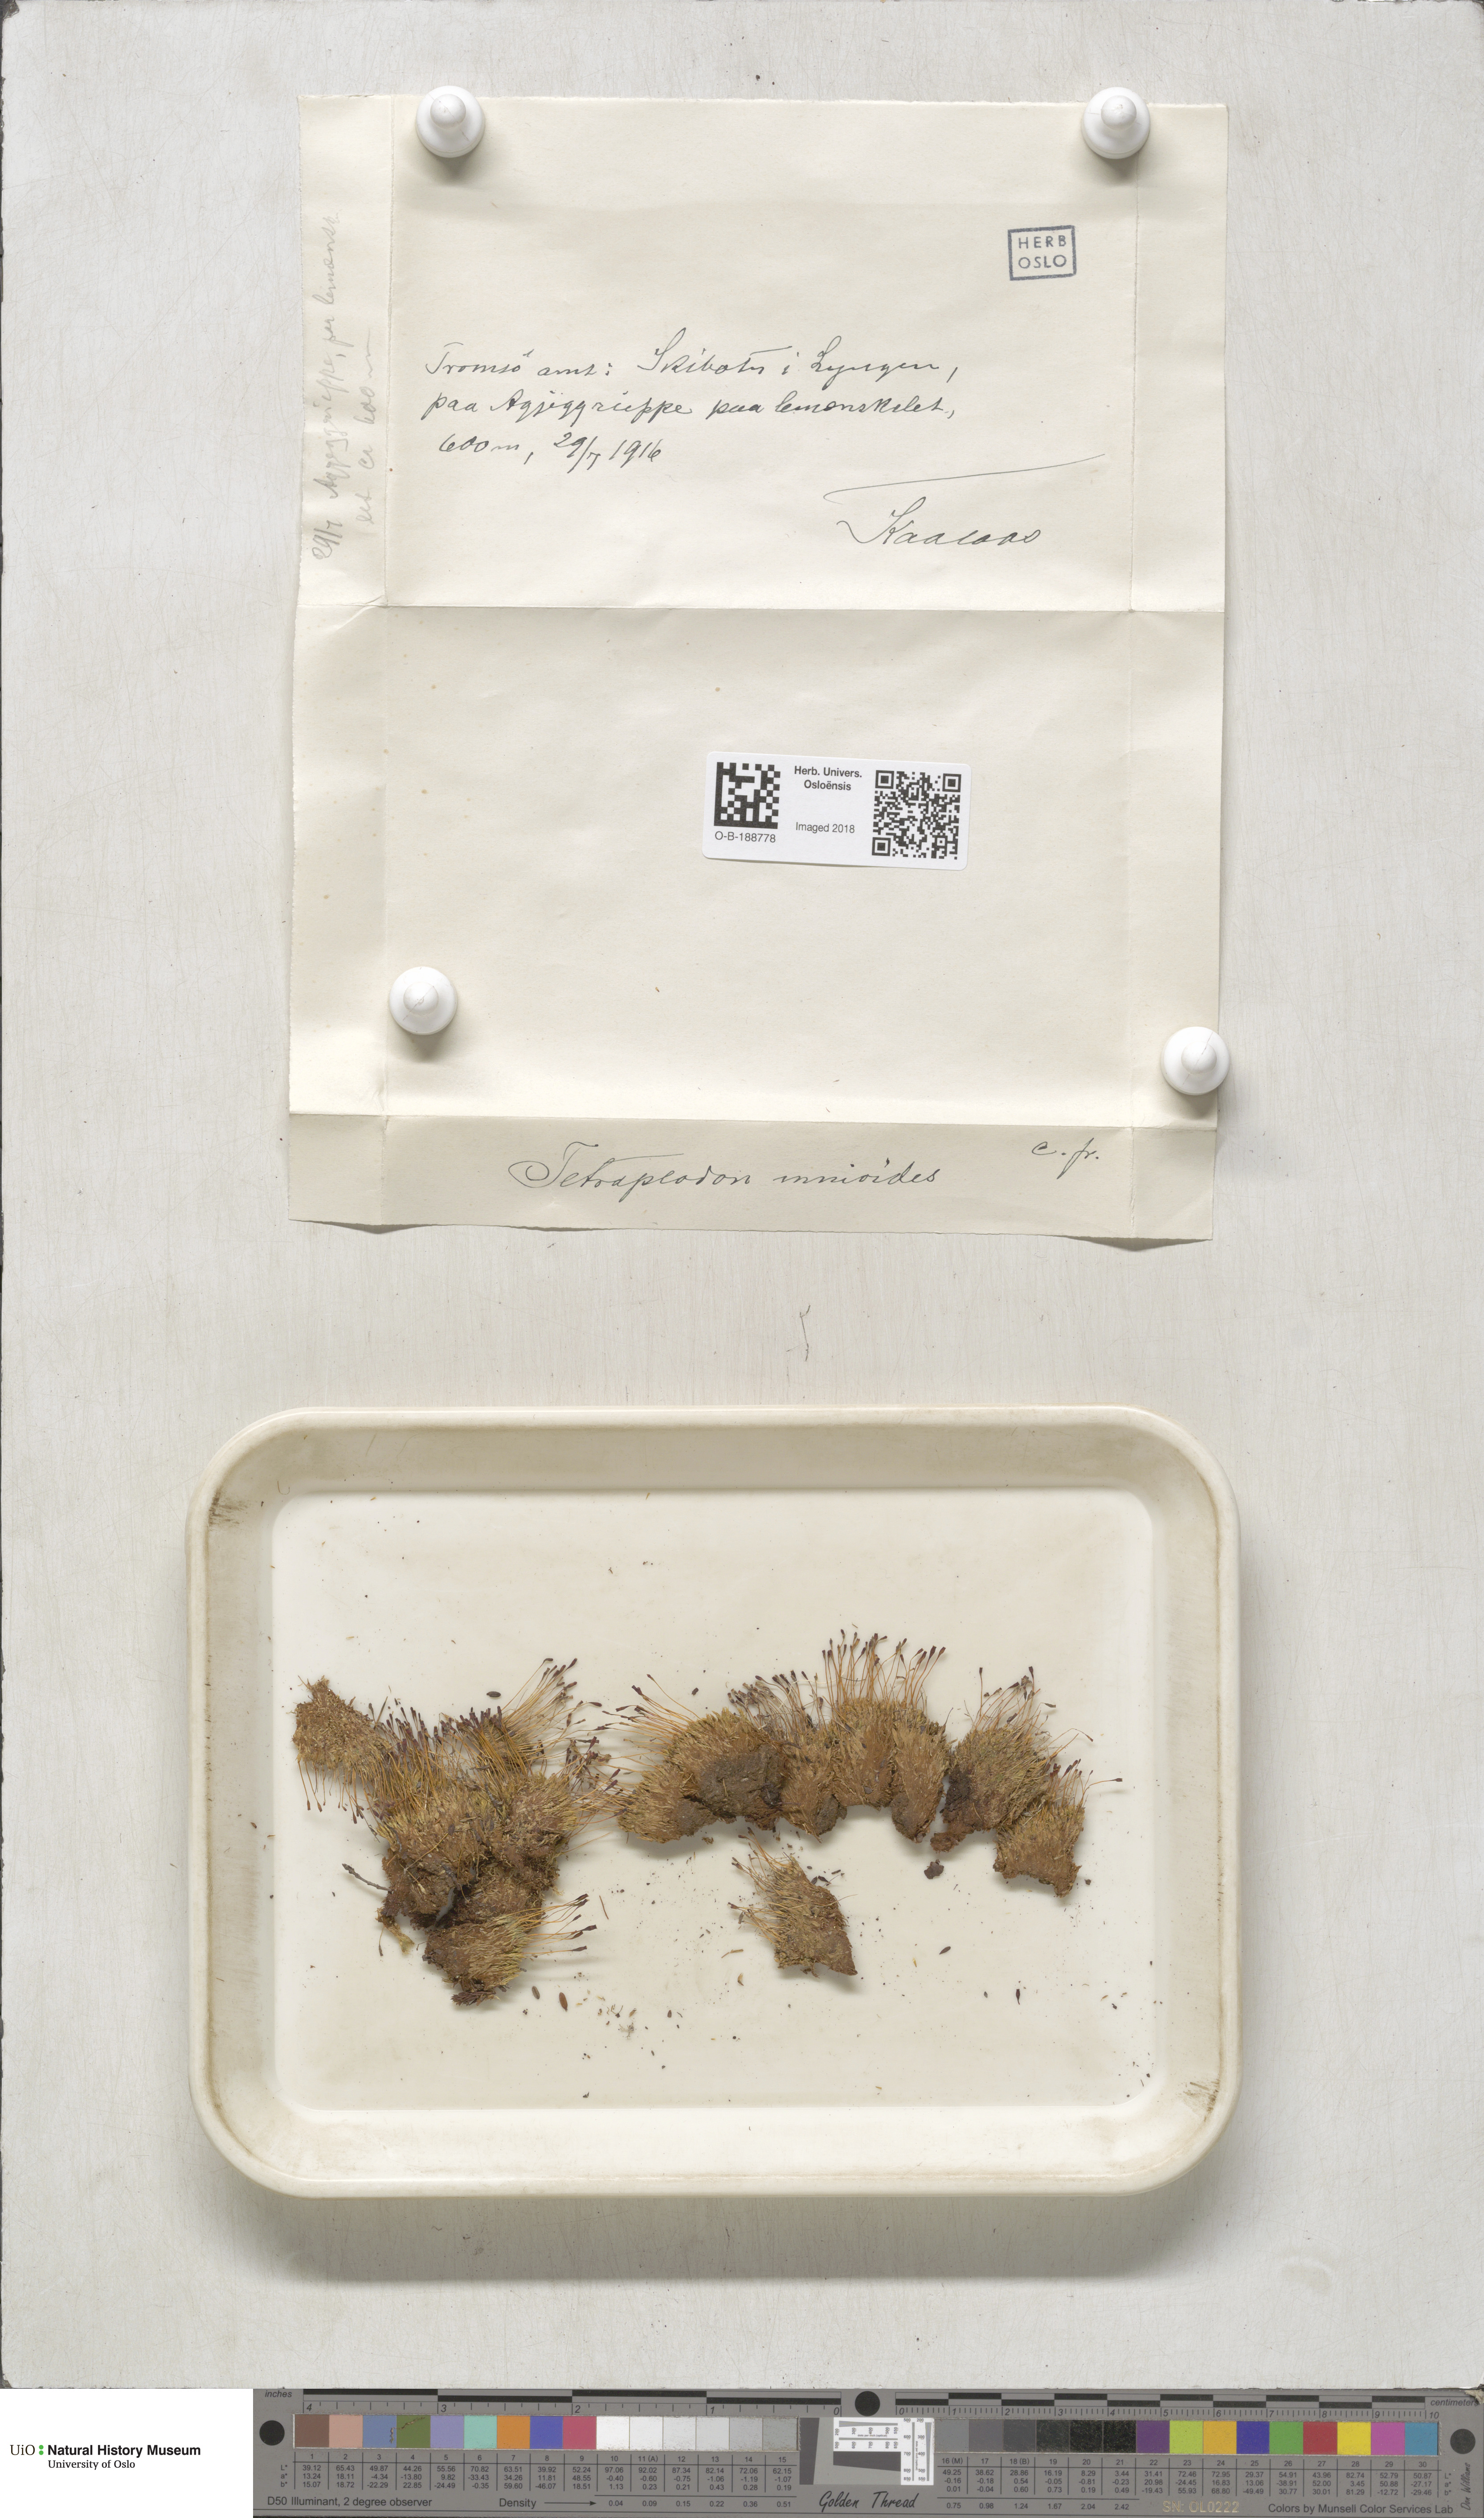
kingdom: Plantae
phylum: Bryophyta
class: Bryopsida
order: Splachnales
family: Splachnaceae
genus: Tetraplodon
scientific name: Tetraplodon mnioides
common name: Entire-leaved nitrogen moss
